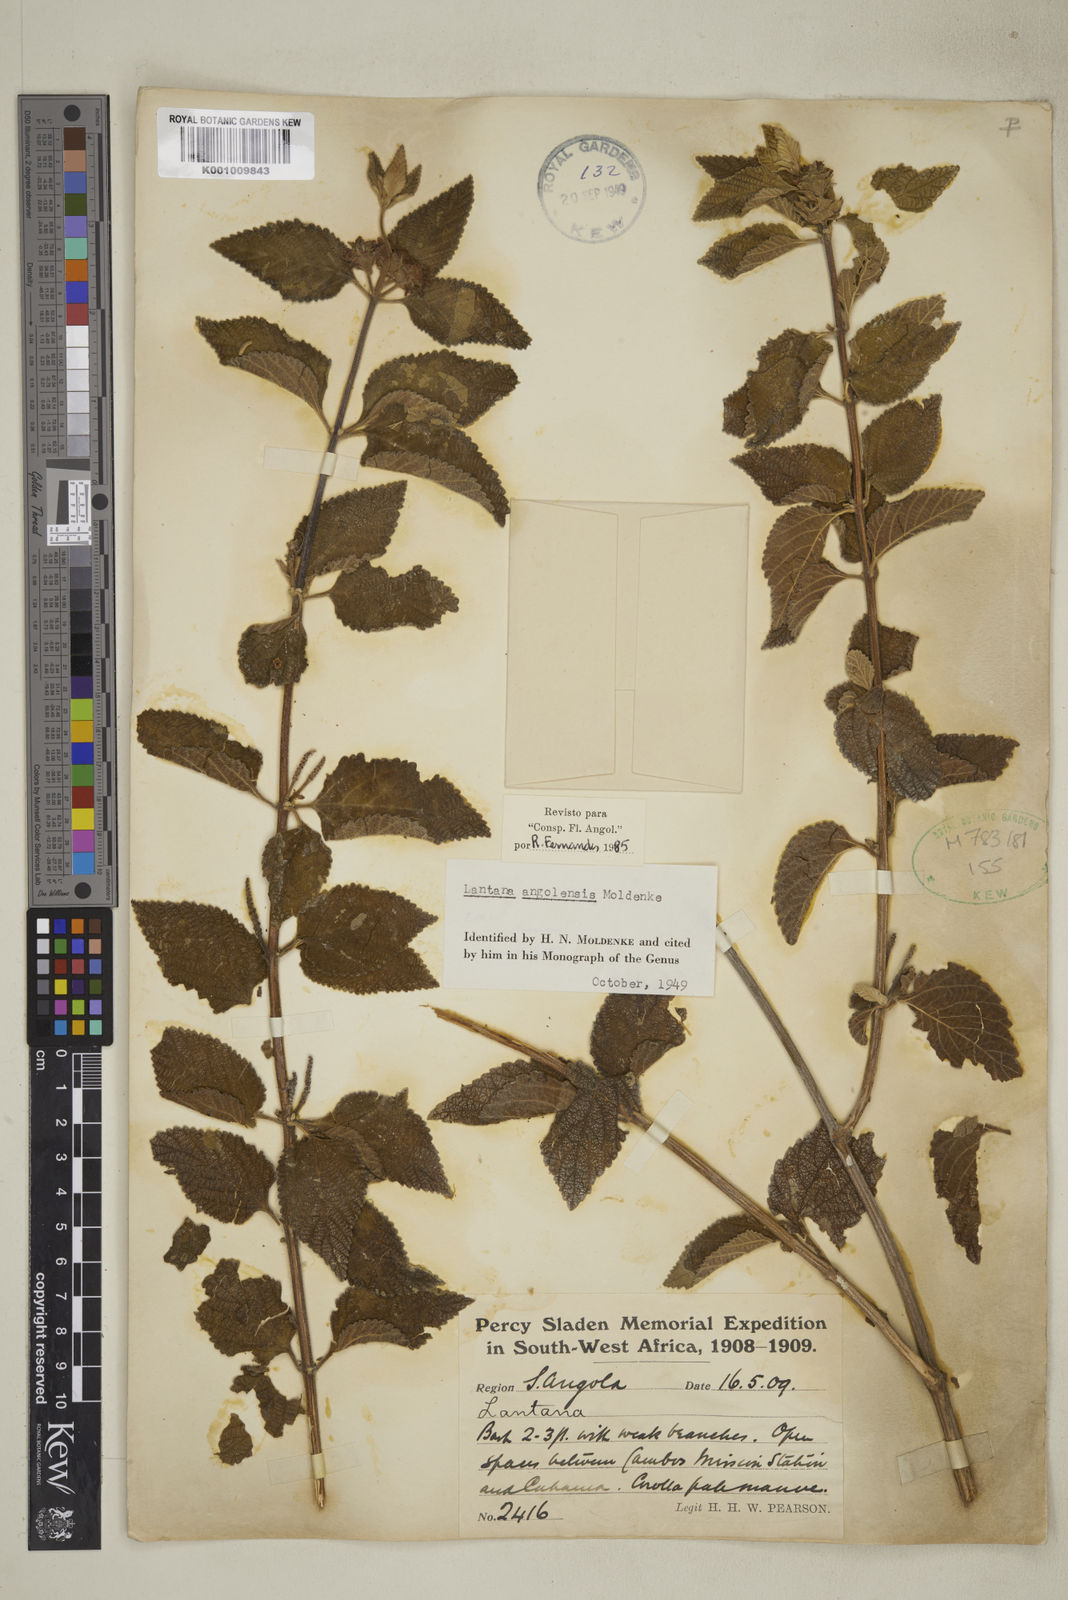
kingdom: Plantae
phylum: Tracheophyta
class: Magnoliopsida
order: Lamiales
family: Verbenaceae
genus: Lantana
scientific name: Lantana angolensis
